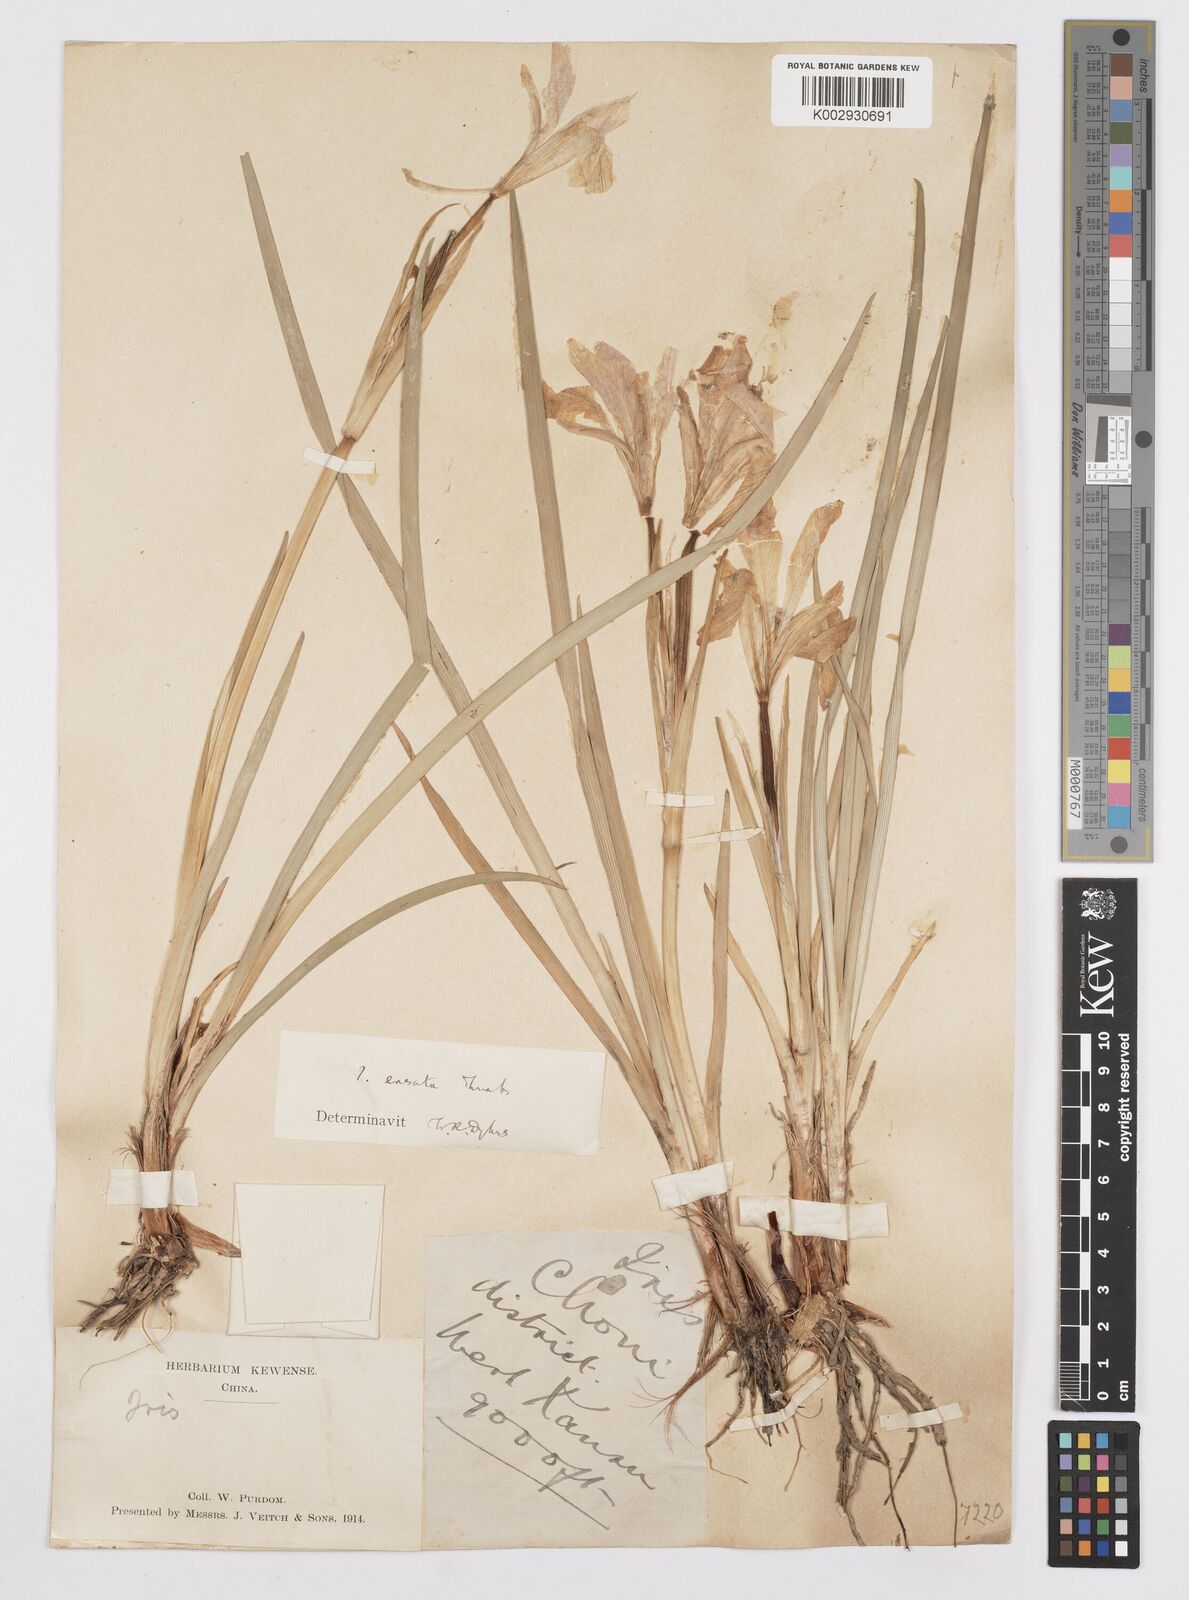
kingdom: Plantae
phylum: Tracheophyta
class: Liliopsida
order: Asparagales
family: Iridaceae
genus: Iris
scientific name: Iris ensata
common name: Beaked iris
